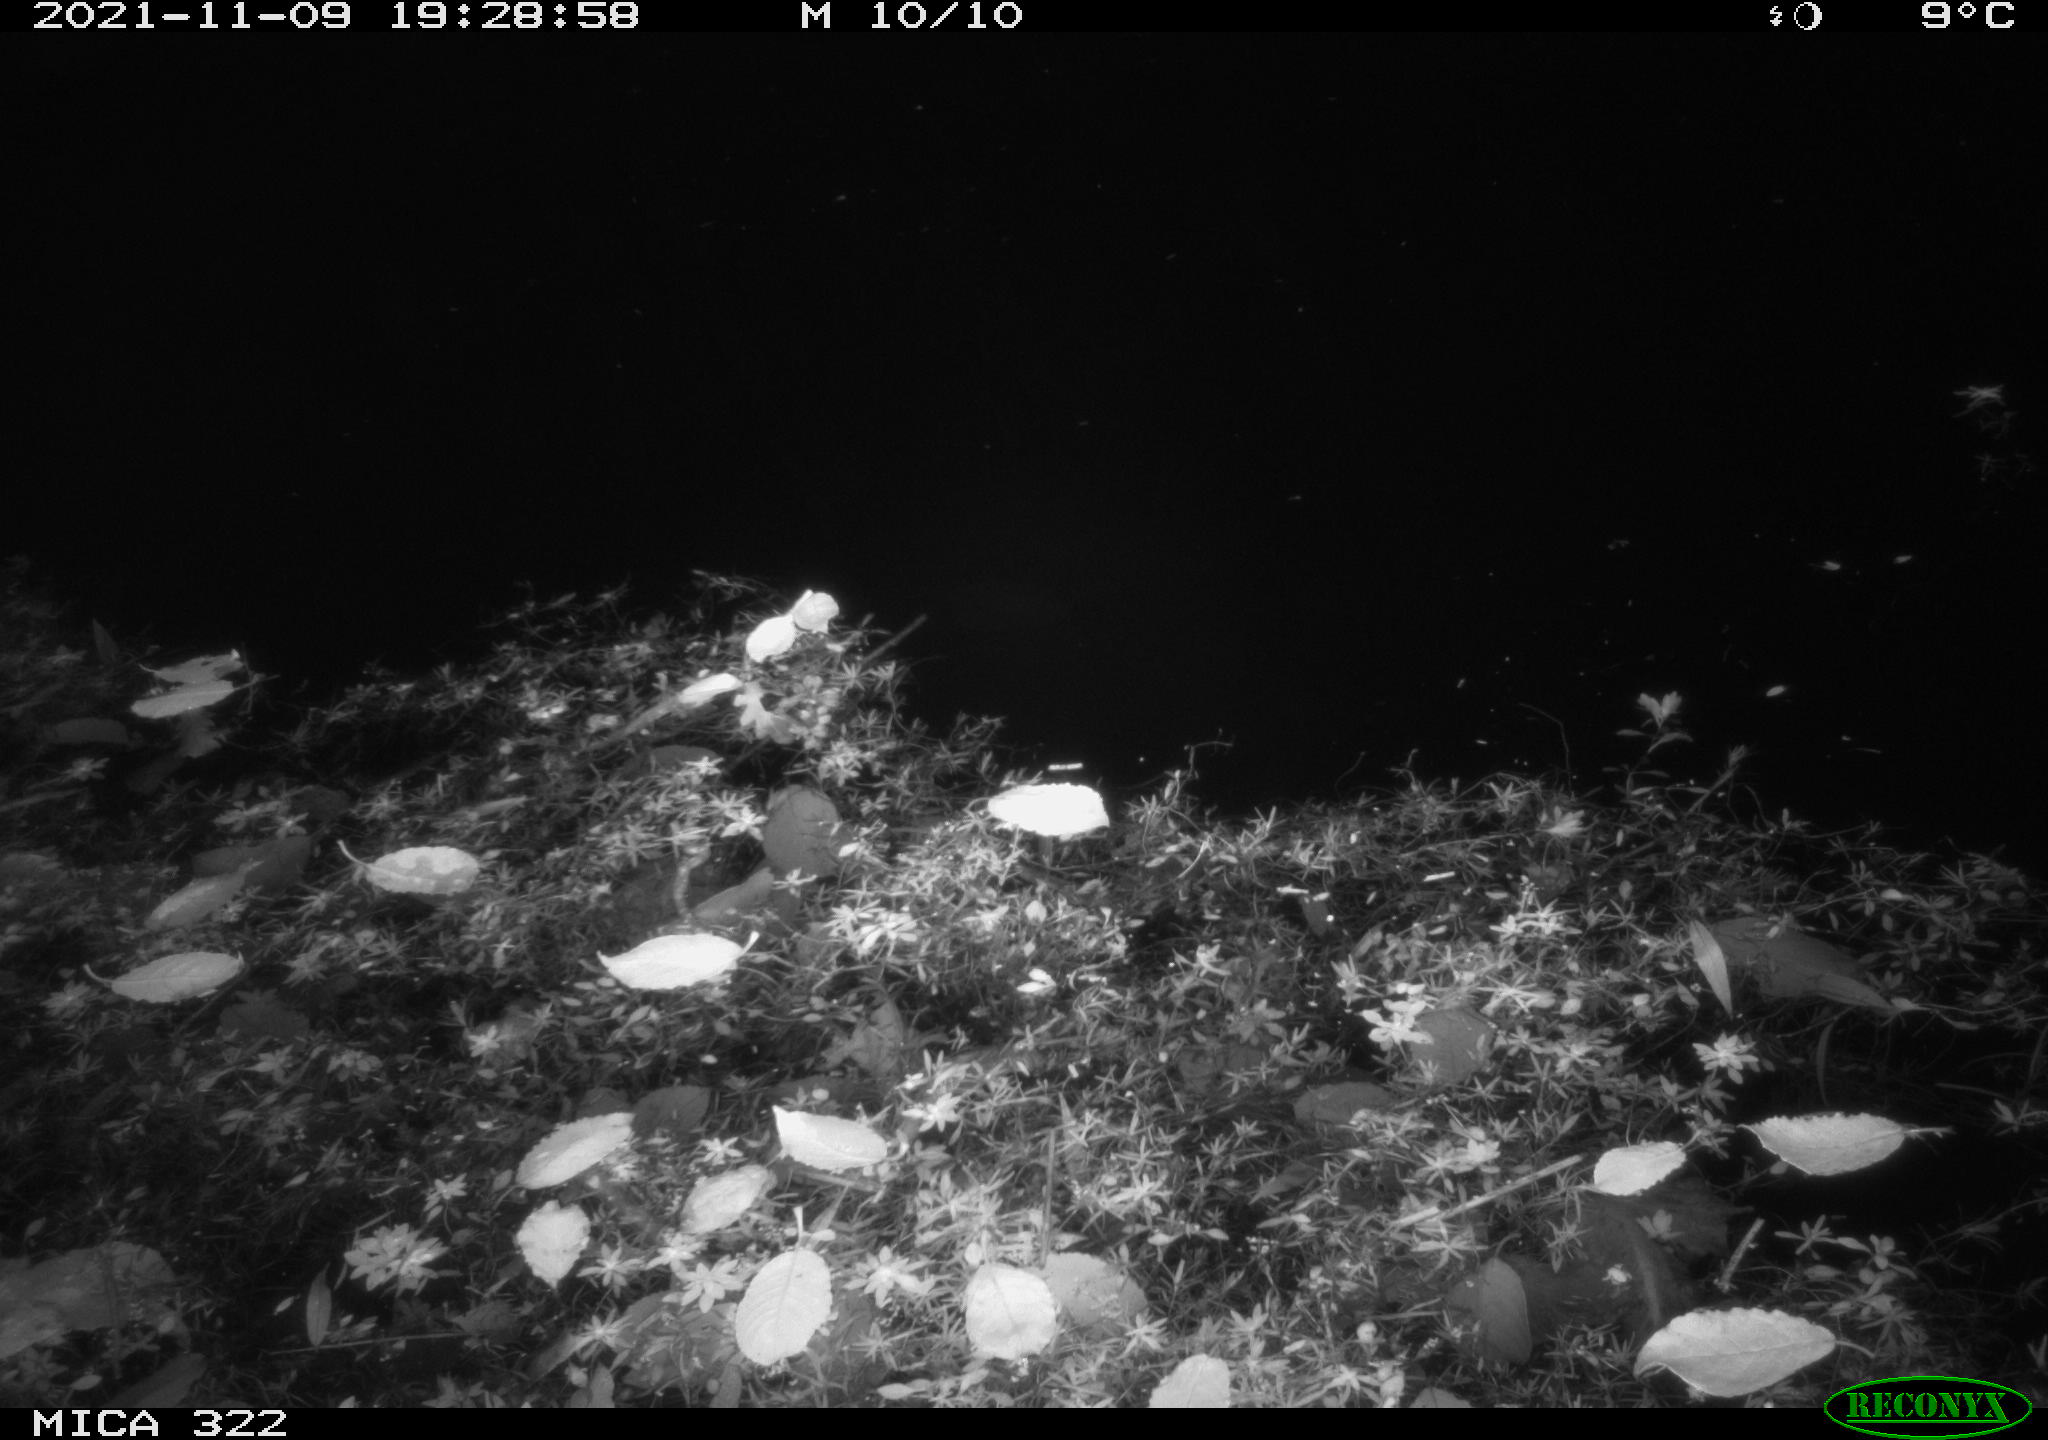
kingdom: Animalia
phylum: Chordata
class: Mammalia
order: Rodentia
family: Muridae
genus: Rattus
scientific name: Rattus norvegicus
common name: Brown rat
